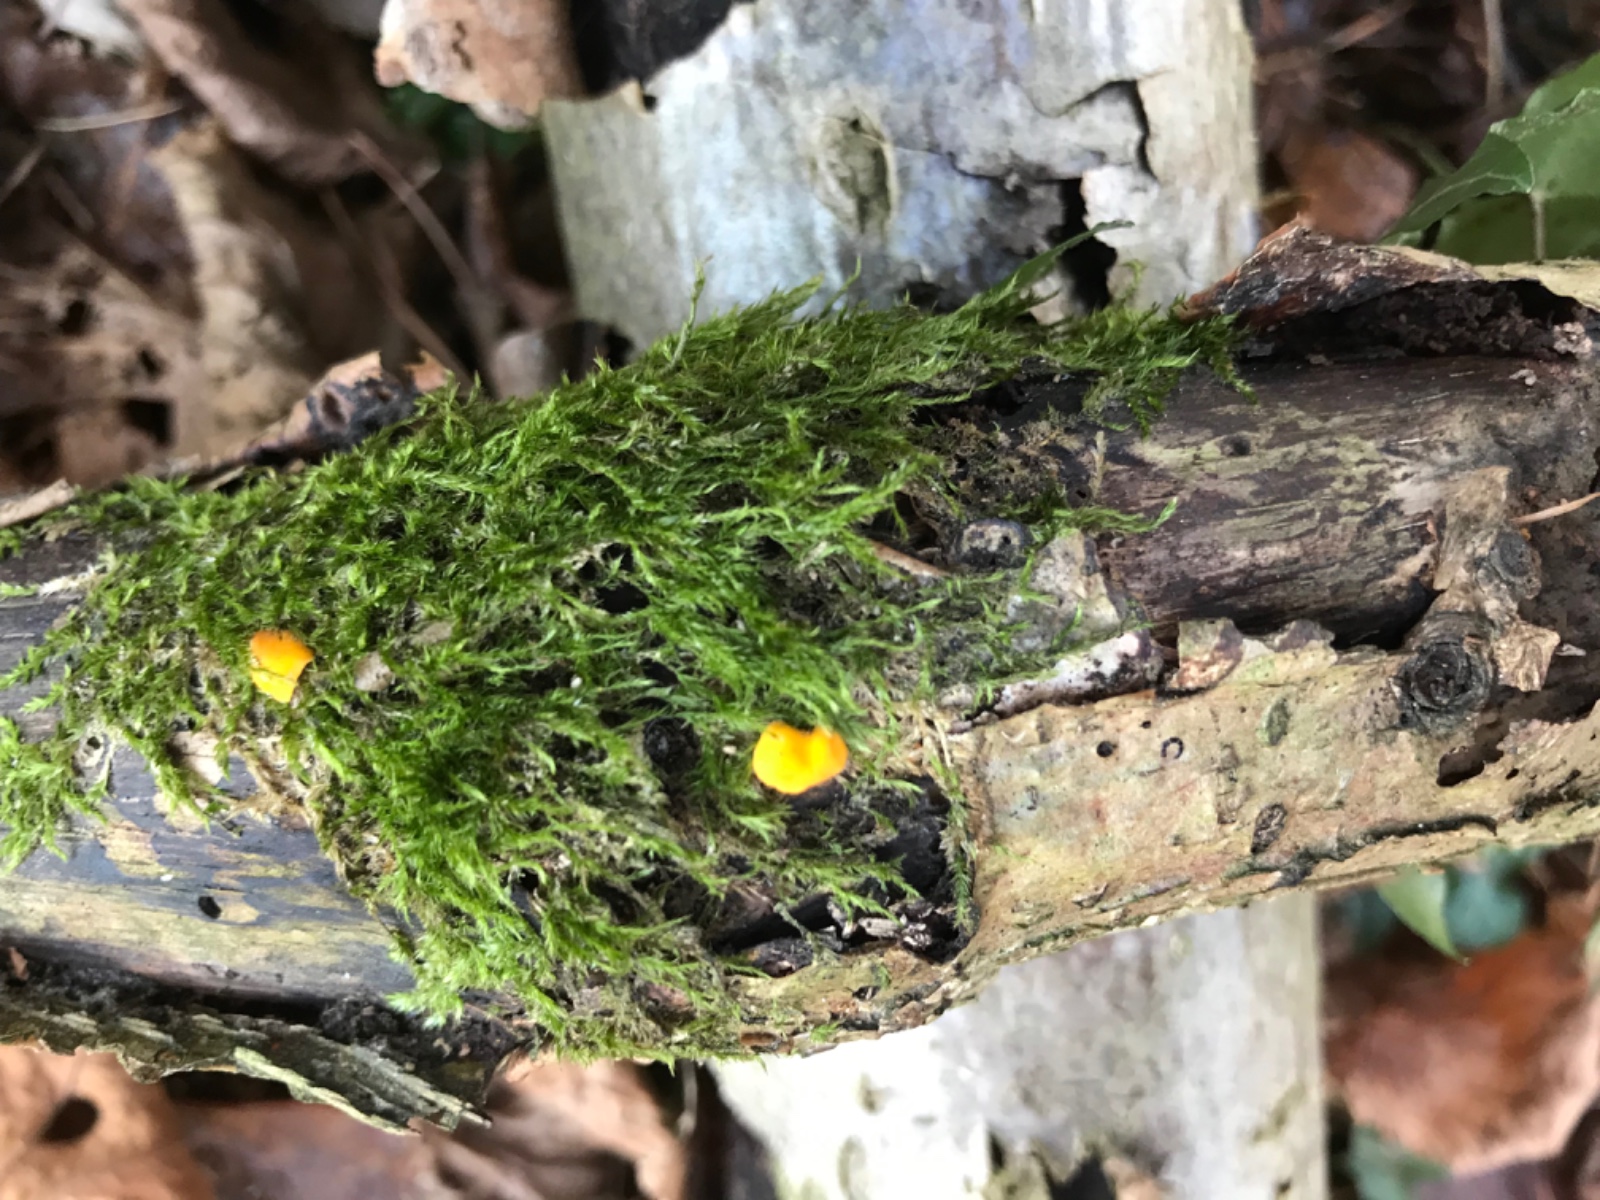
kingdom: Fungi
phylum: Ascomycota
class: Leotiomycetes
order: Helotiales
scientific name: Helotiales
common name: stilkskiveordenen
